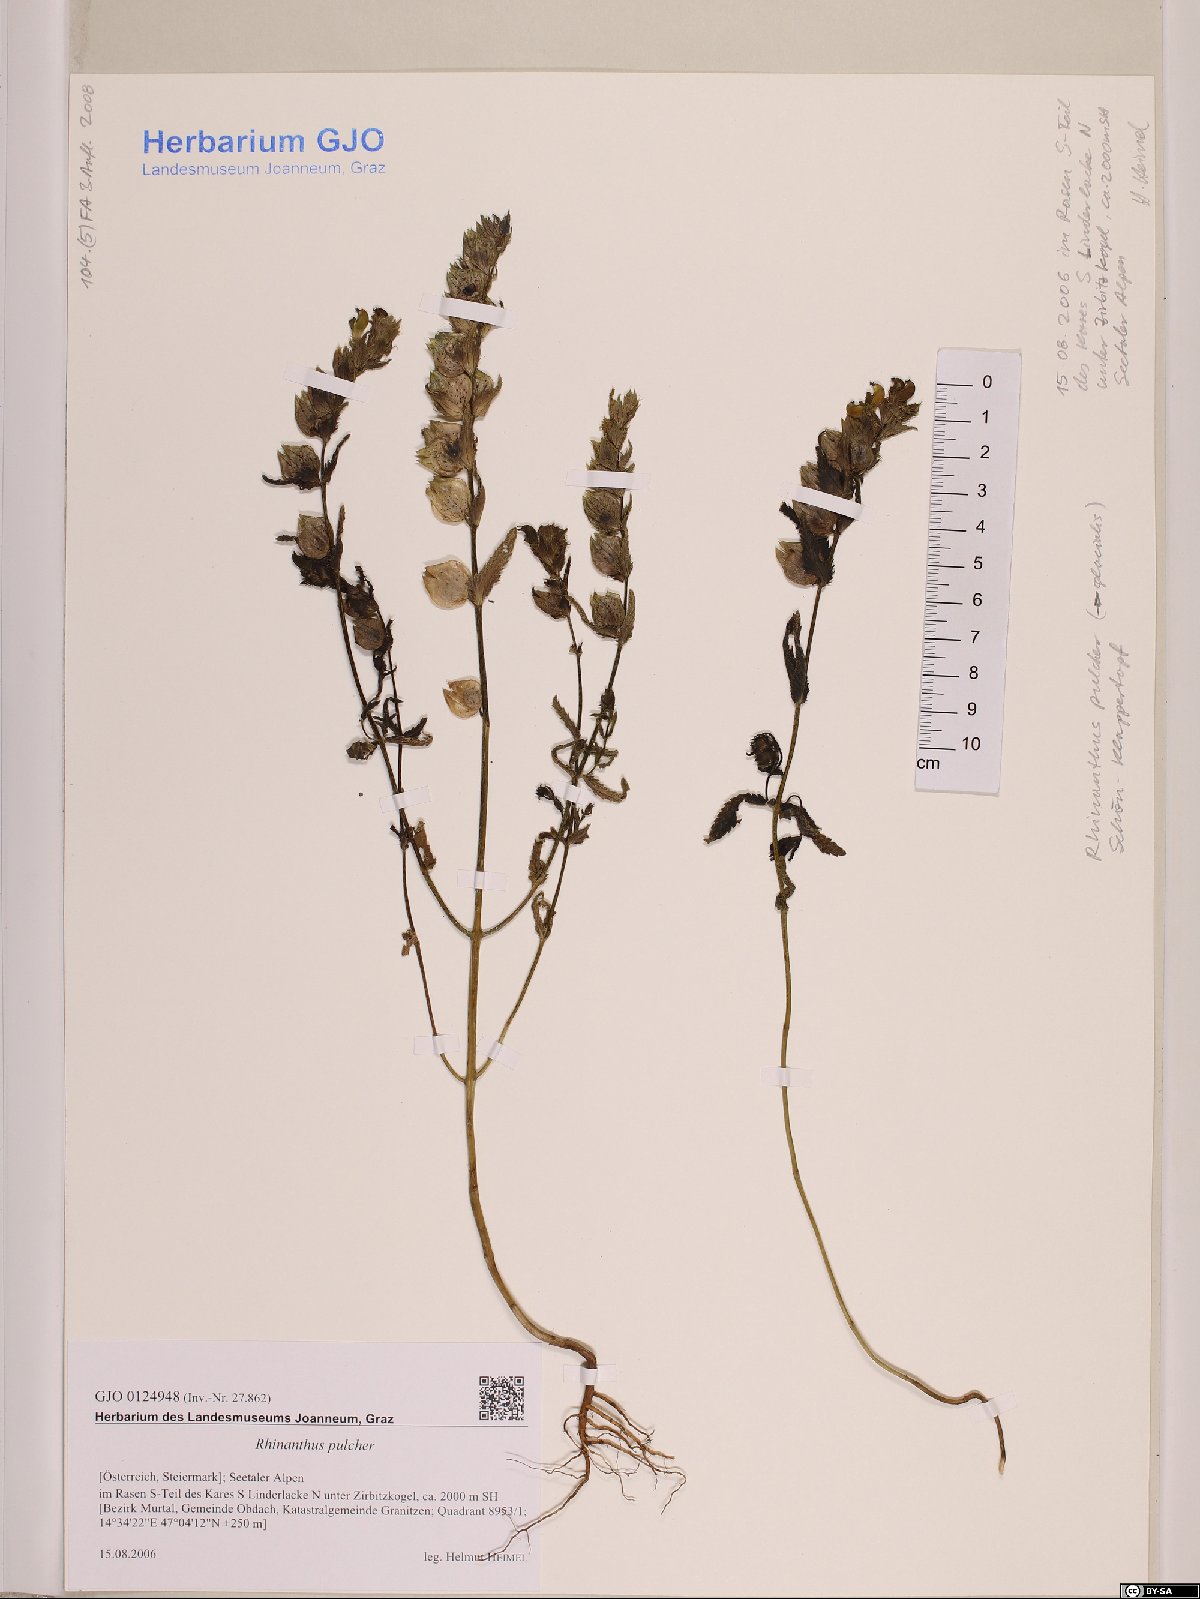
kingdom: Plantae
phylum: Tracheophyta
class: Magnoliopsida
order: Lamiales
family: Orobanchaceae
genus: Rhinanthus
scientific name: Rhinanthus riphaeus
